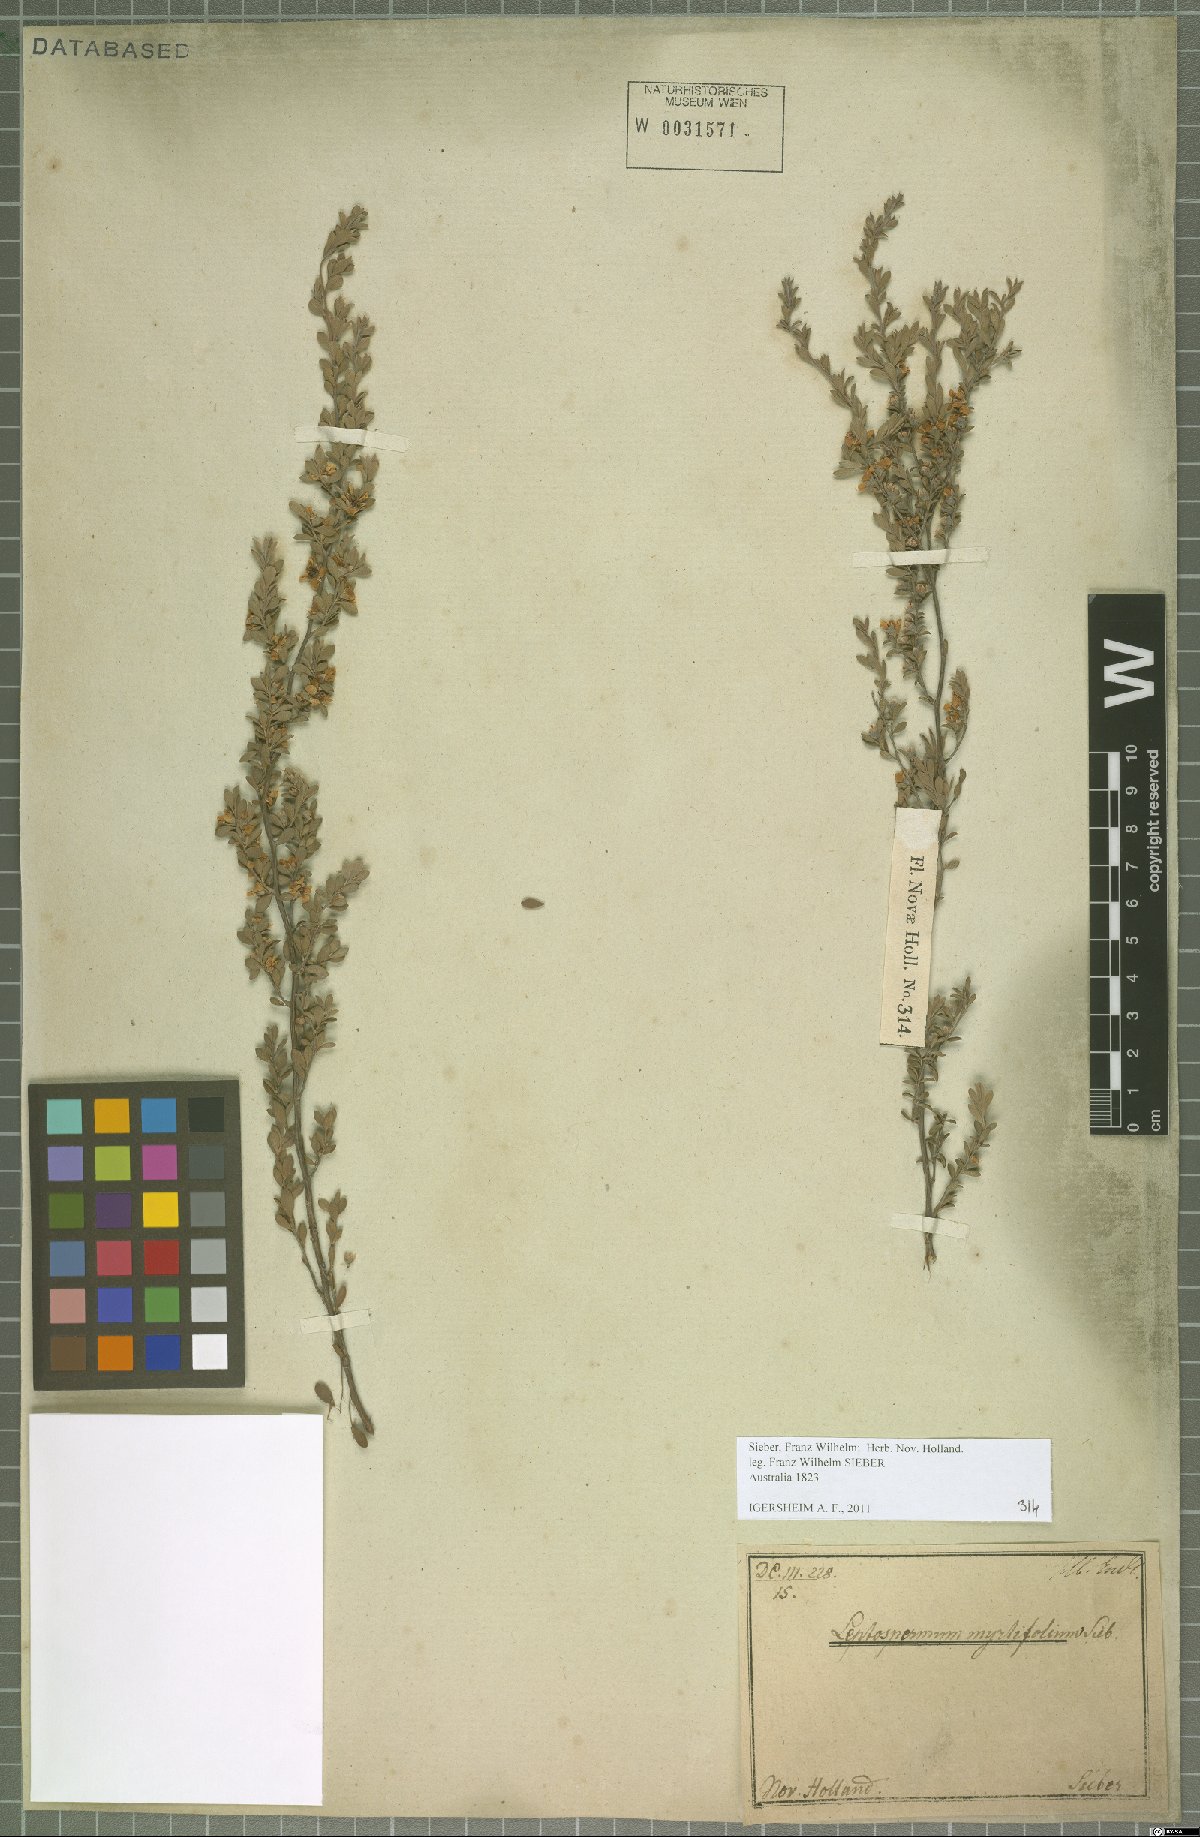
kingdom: Plantae
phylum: Tracheophyta
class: Magnoliopsida
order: Myrtales
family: Myrtaceae
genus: Leptospermum
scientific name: Leptospermum myrtifolium
